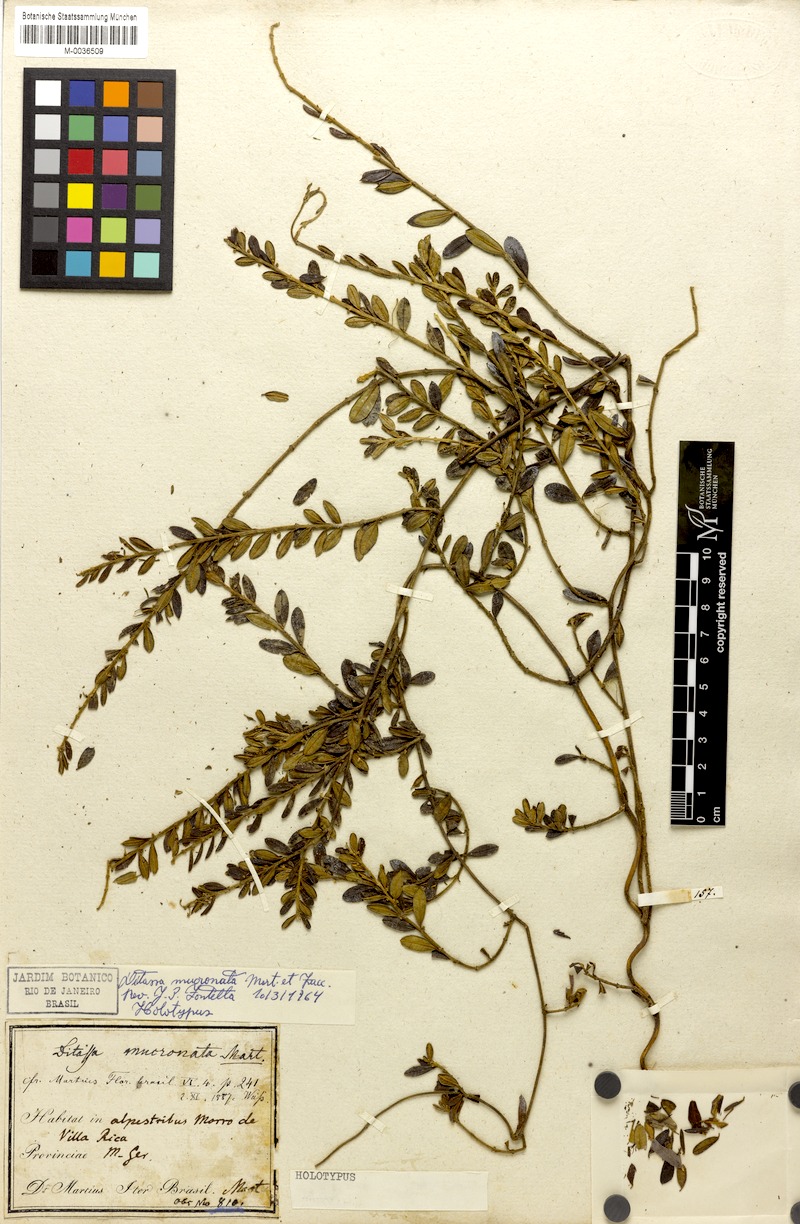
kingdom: Plantae
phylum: Tracheophyta
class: Magnoliopsida
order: Gentianales
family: Apocynaceae
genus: Ditassa
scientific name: Ditassa mucronata
